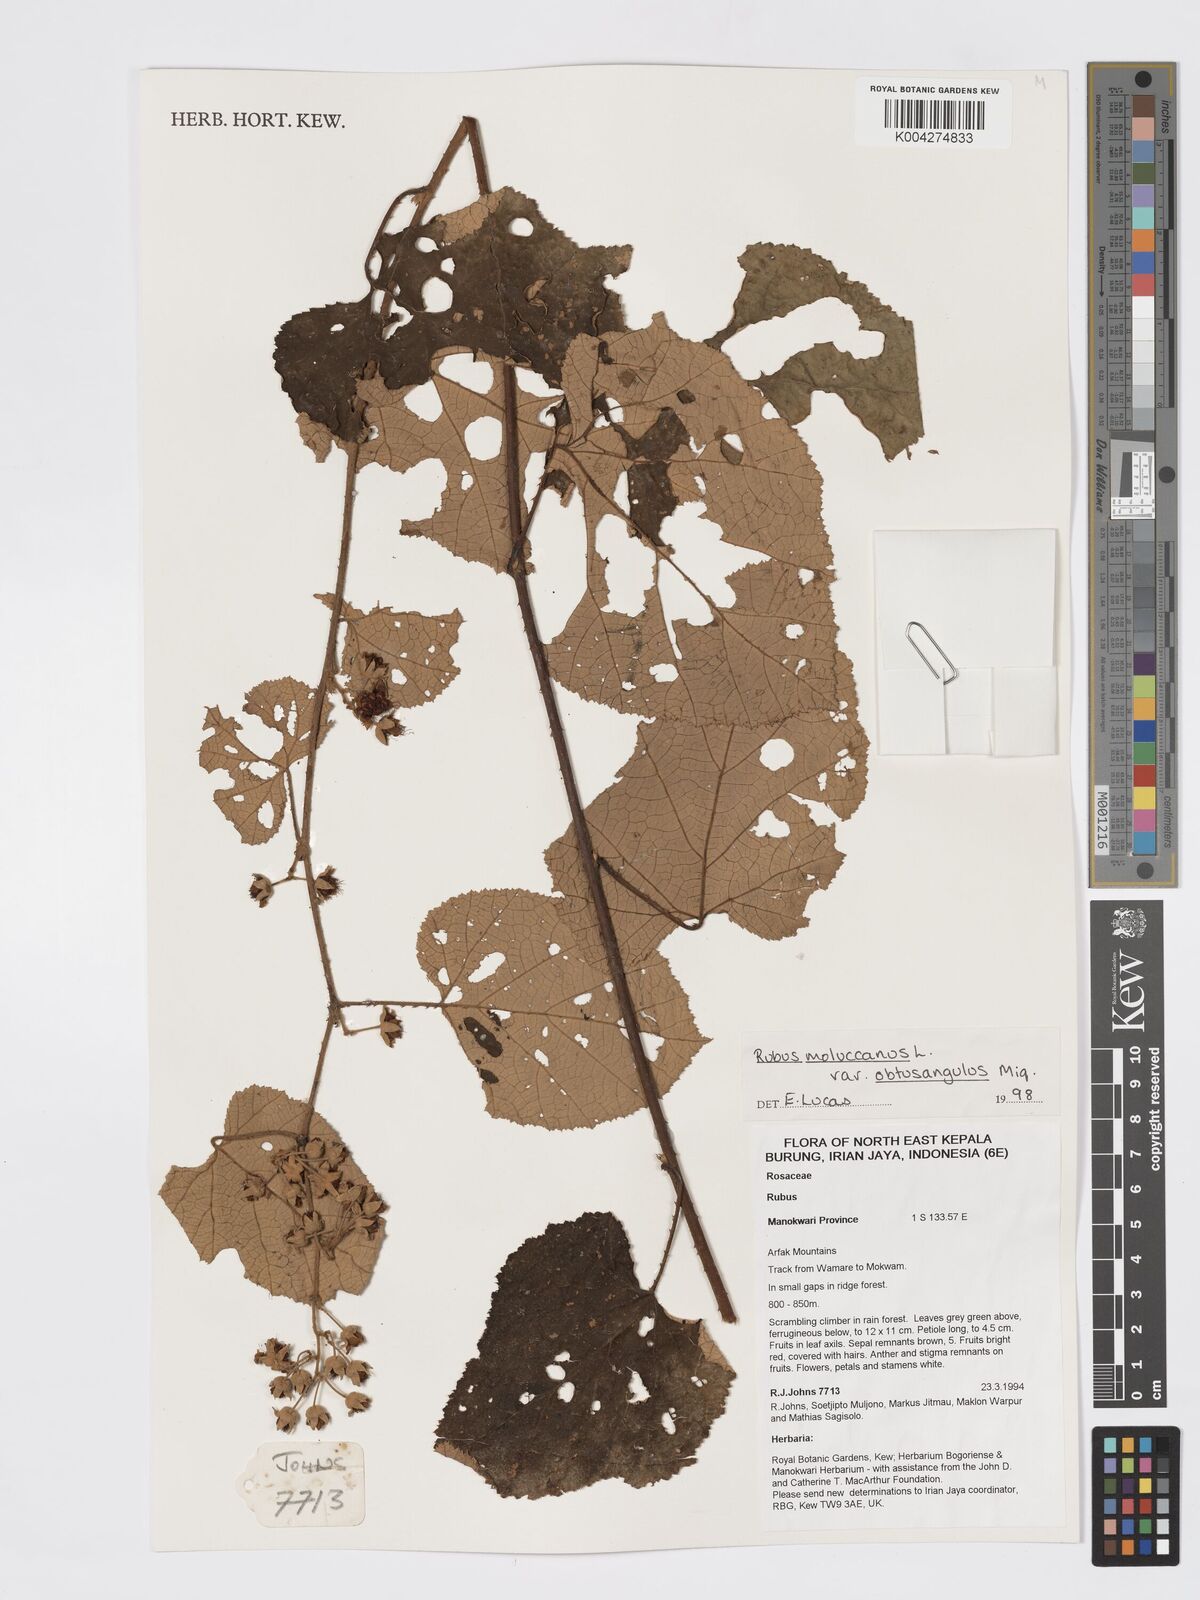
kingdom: Plantae
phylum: Tracheophyta
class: Magnoliopsida
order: Rosales
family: Rosaceae
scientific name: Rosaceae
